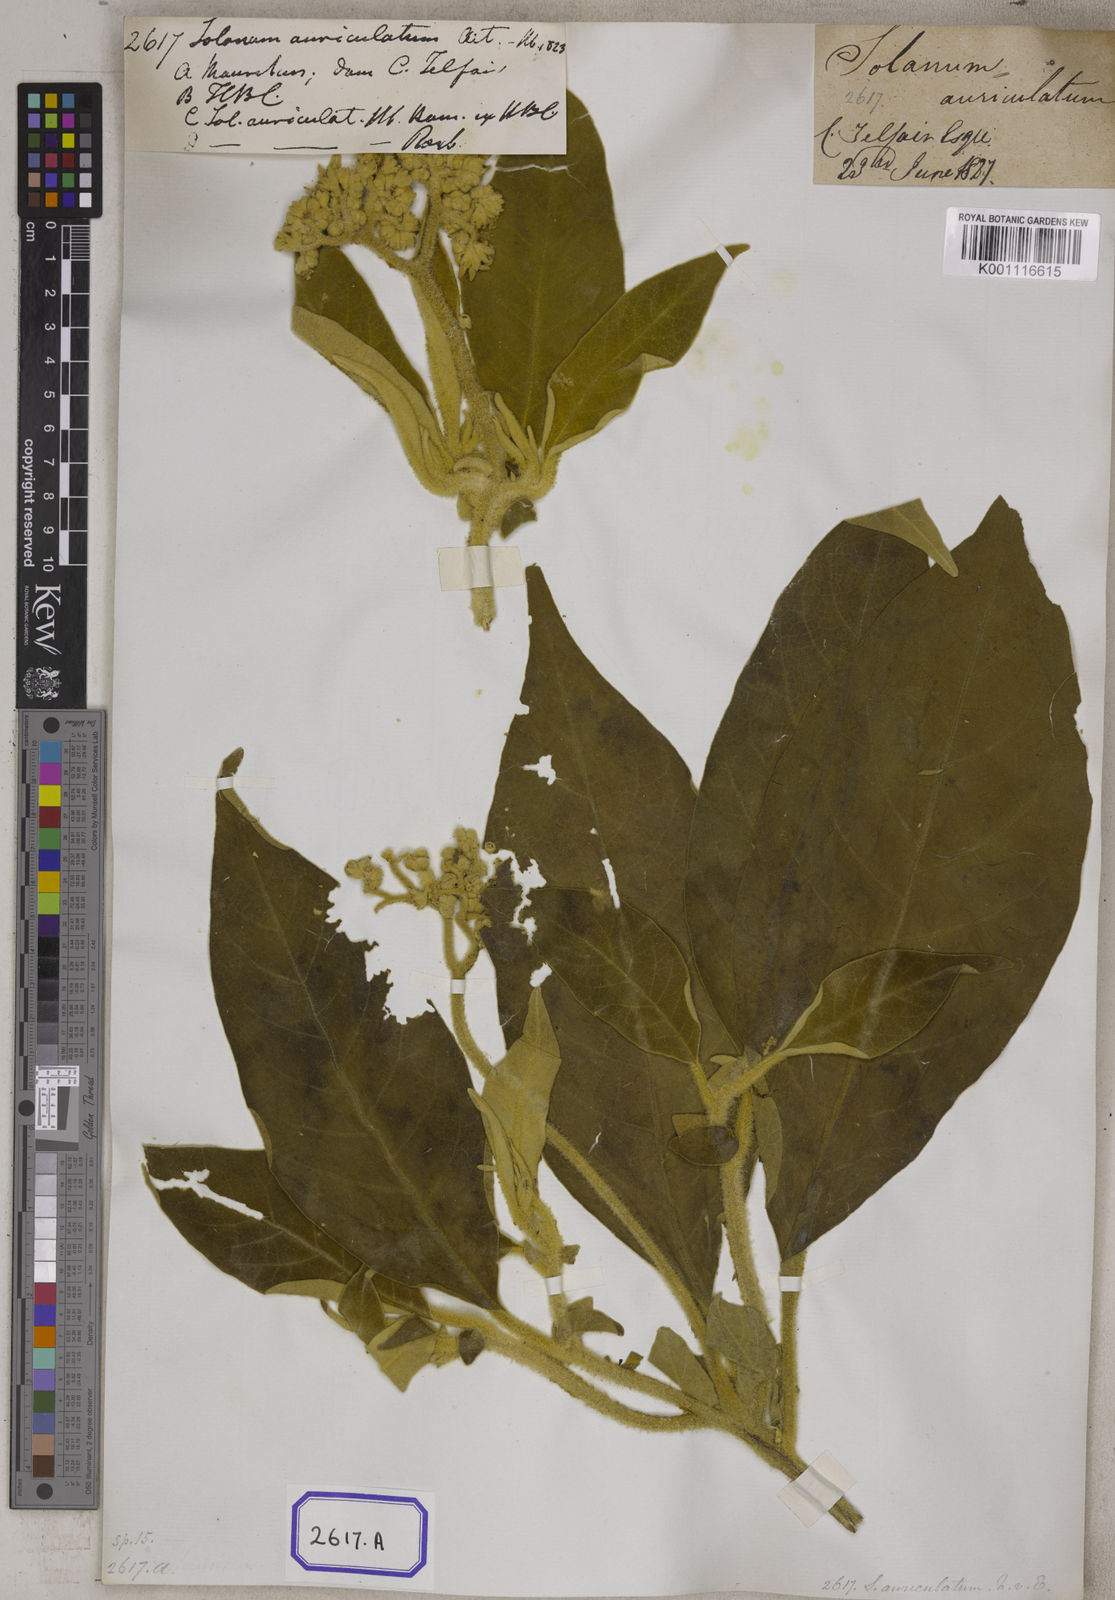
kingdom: Plantae
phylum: Tracheophyta
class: Magnoliopsida
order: Solanales
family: Solanaceae
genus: Solanum
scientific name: Solanum mauritianum
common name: Earleaf nightshade
